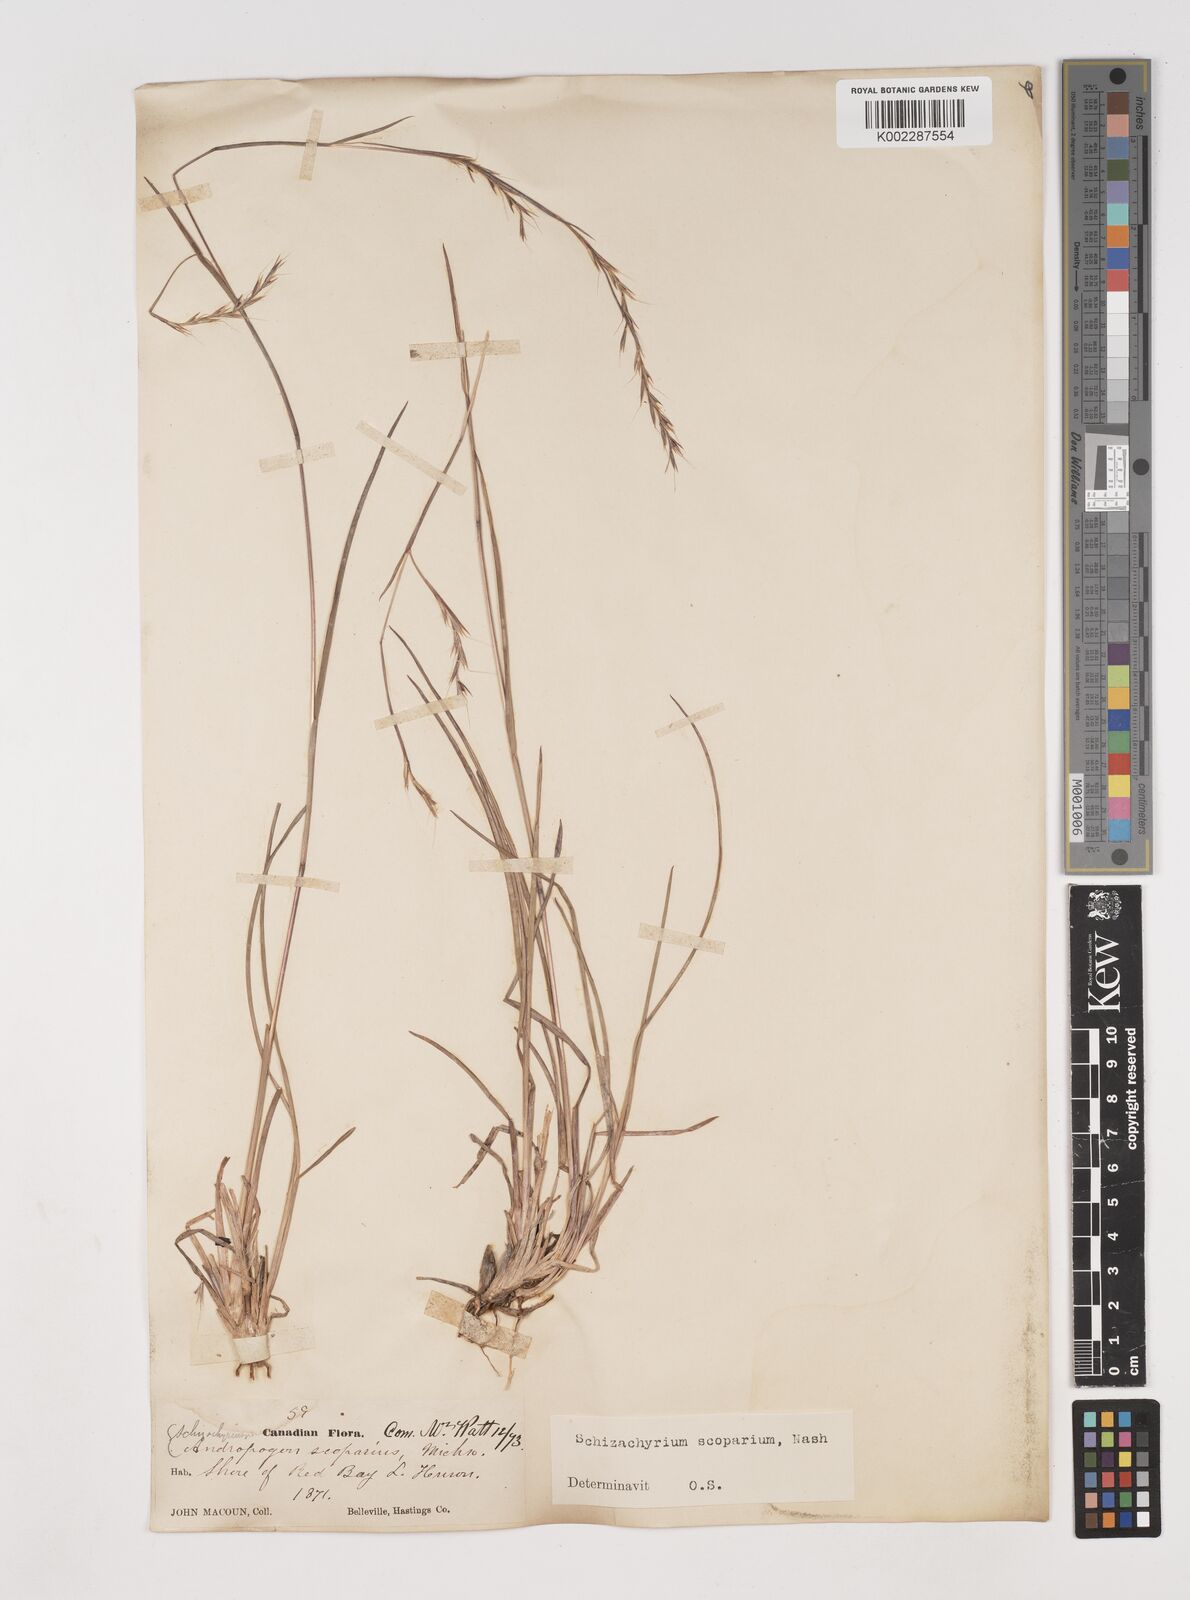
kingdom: Plantae
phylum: Tracheophyta
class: Liliopsida
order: Poales
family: Poaceae
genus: Schizachyrium
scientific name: Schizachyrium scoparium
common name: Little bluestem
